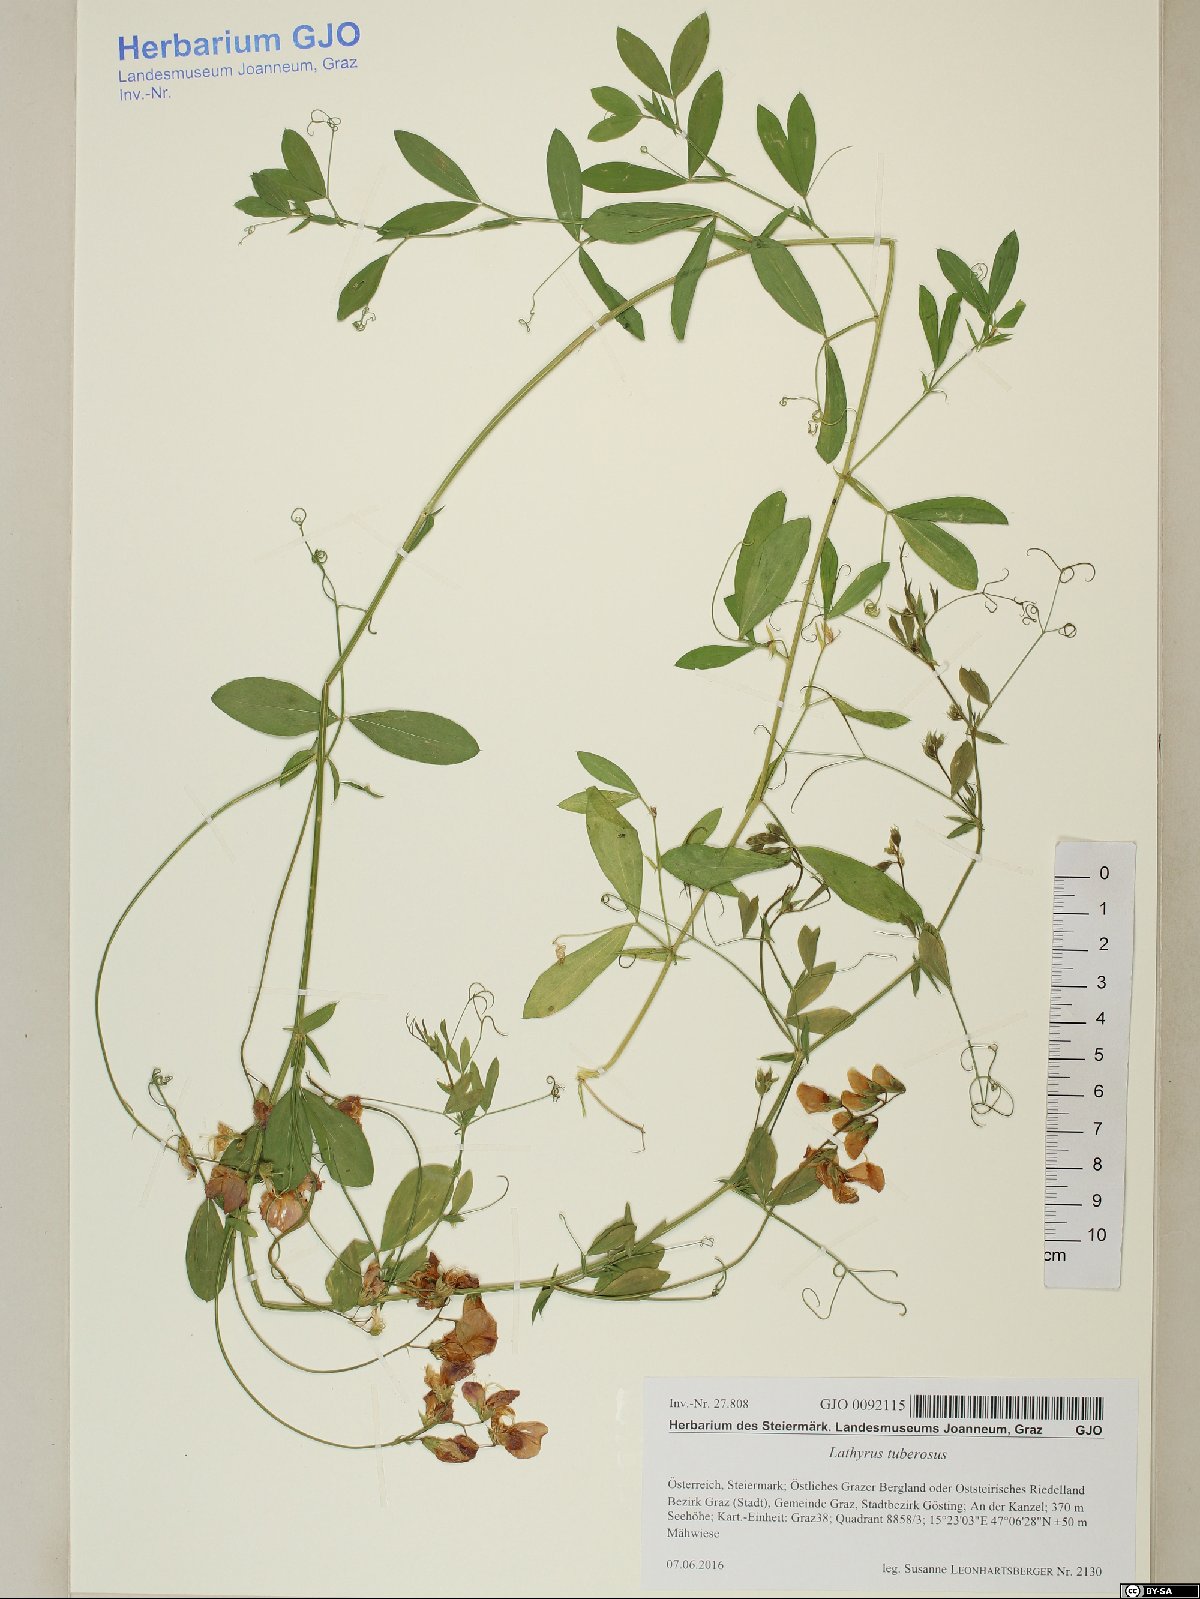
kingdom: Plantae
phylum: Tracheophyta
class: Magnoliopsida
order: Fabales
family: Fabaceae
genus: Lathyrus
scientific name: Lathyrus tuberosus
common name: Tuberous pea
